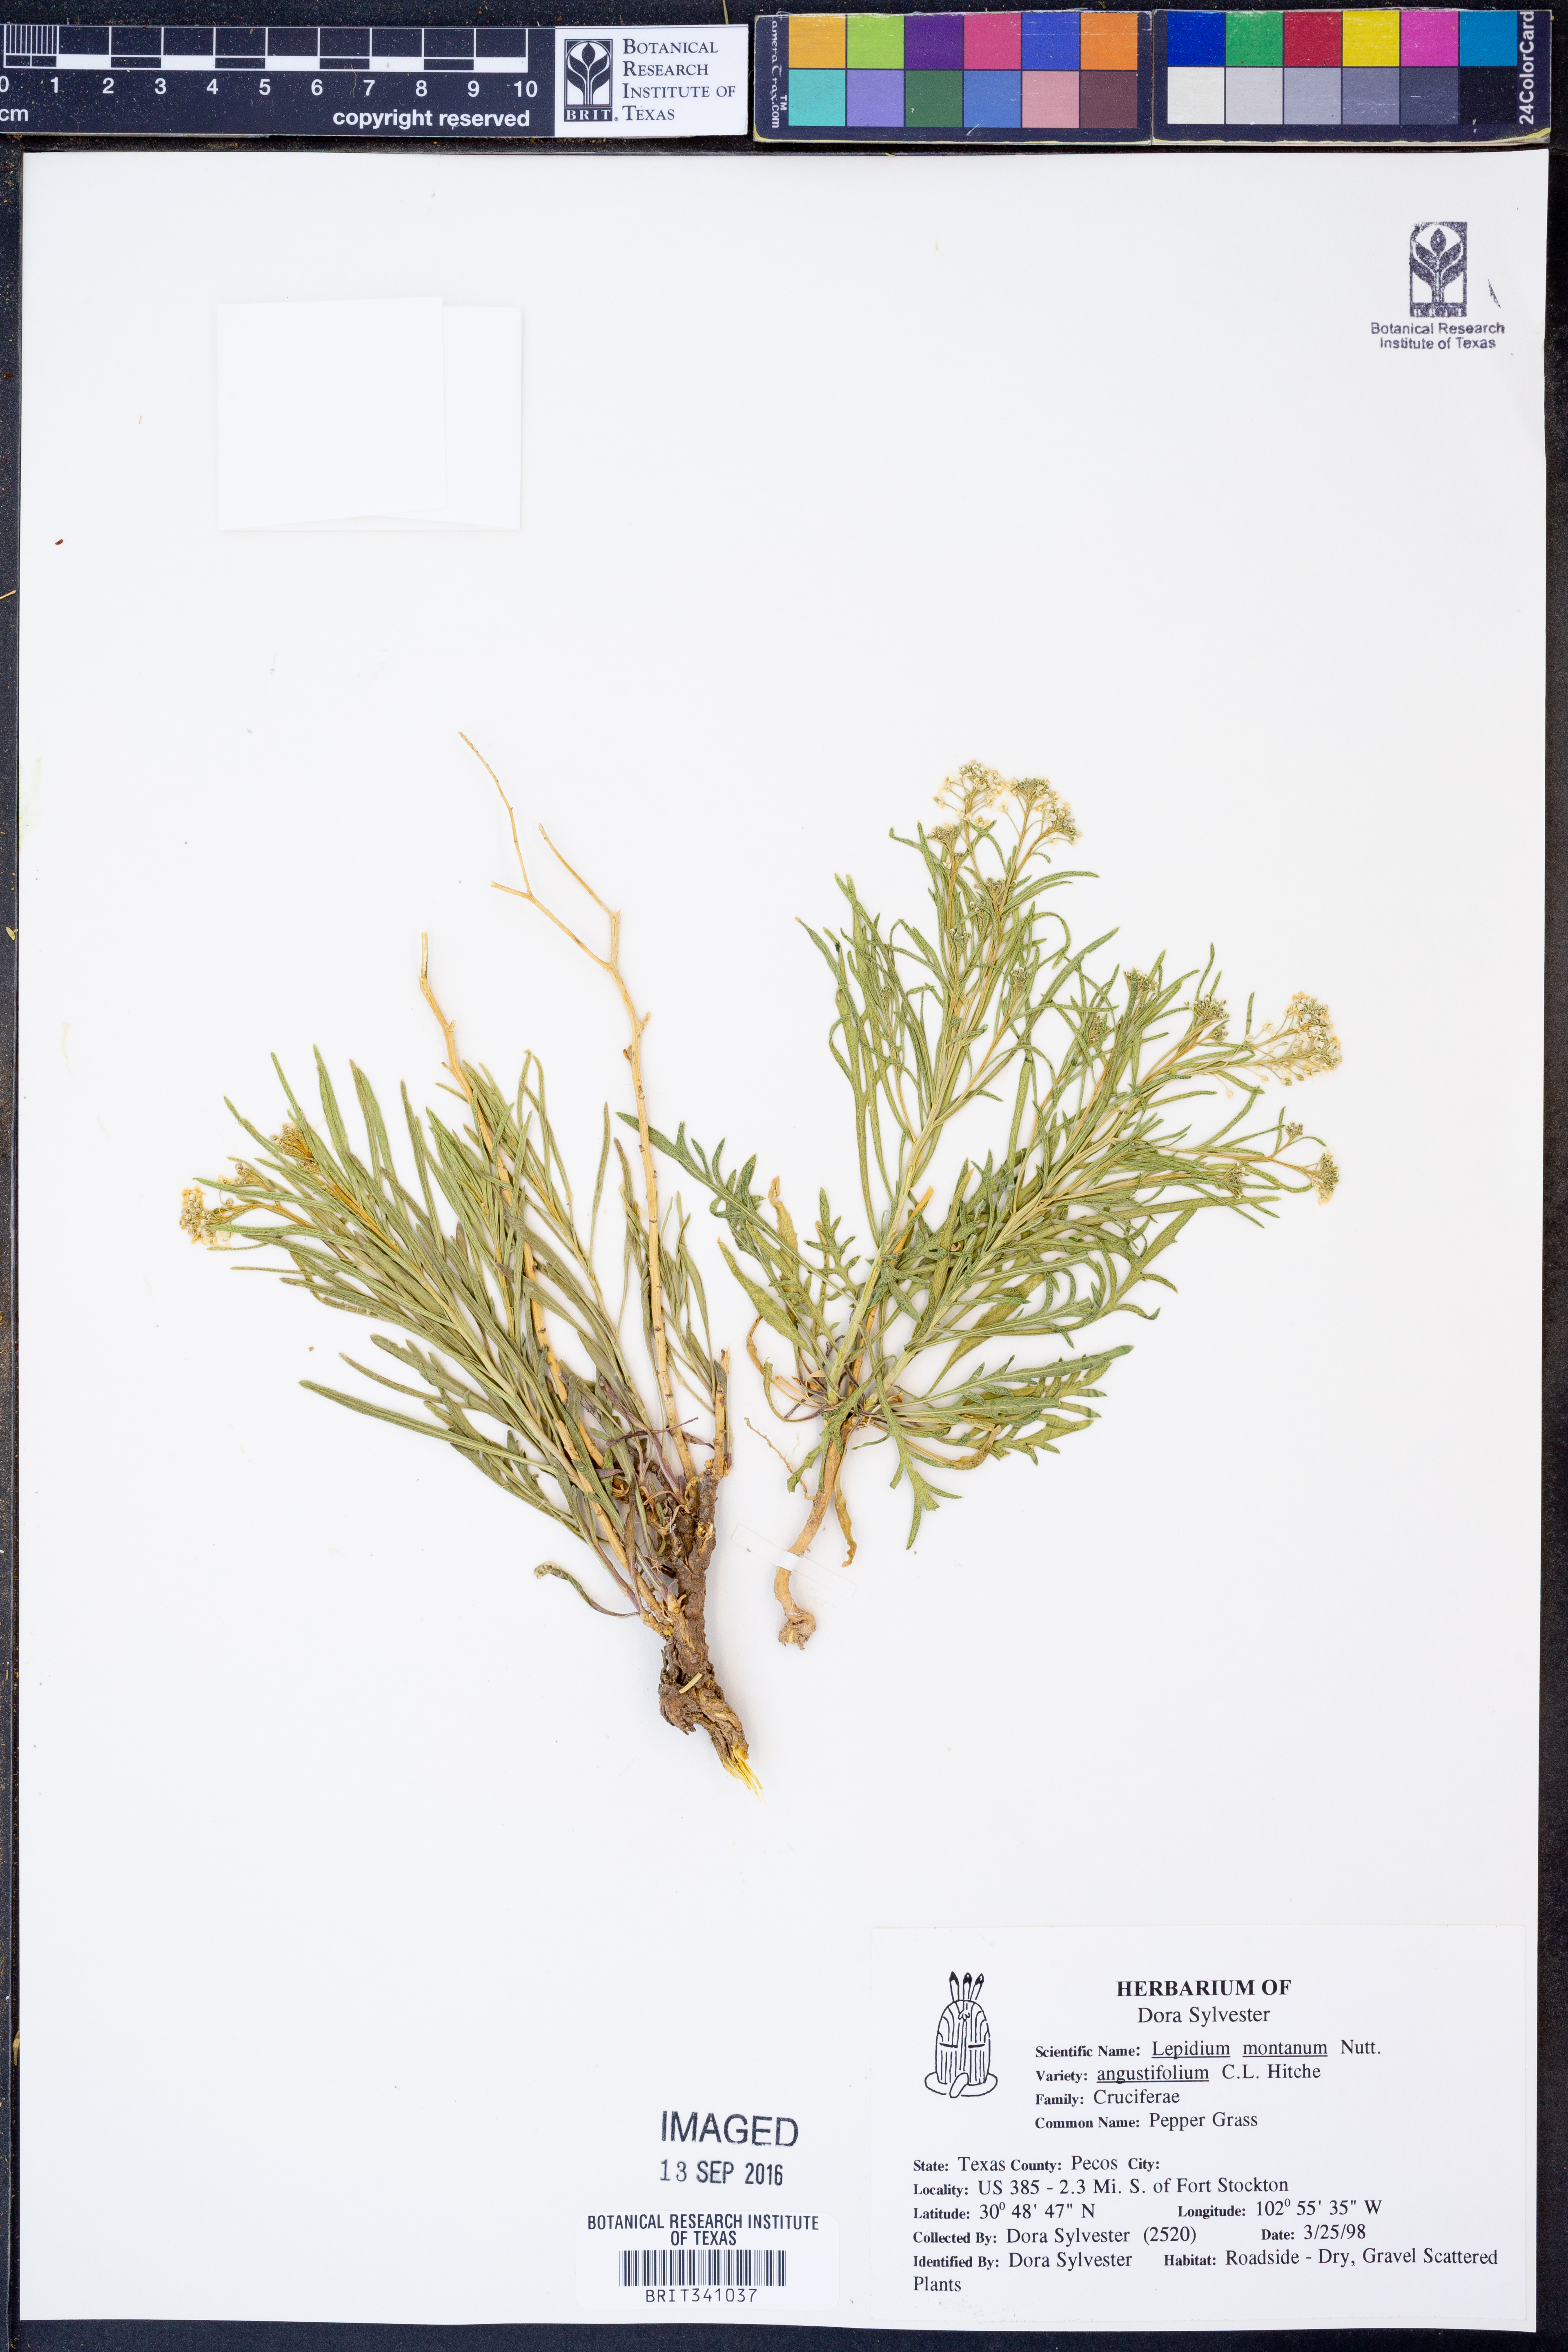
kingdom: Plantae
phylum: Tracheophyta
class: Magnoliopsida
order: Brassicales
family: Brassicaceae
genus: Lepidium
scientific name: Lepidium alyssoides
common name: Mesa pepperweed
